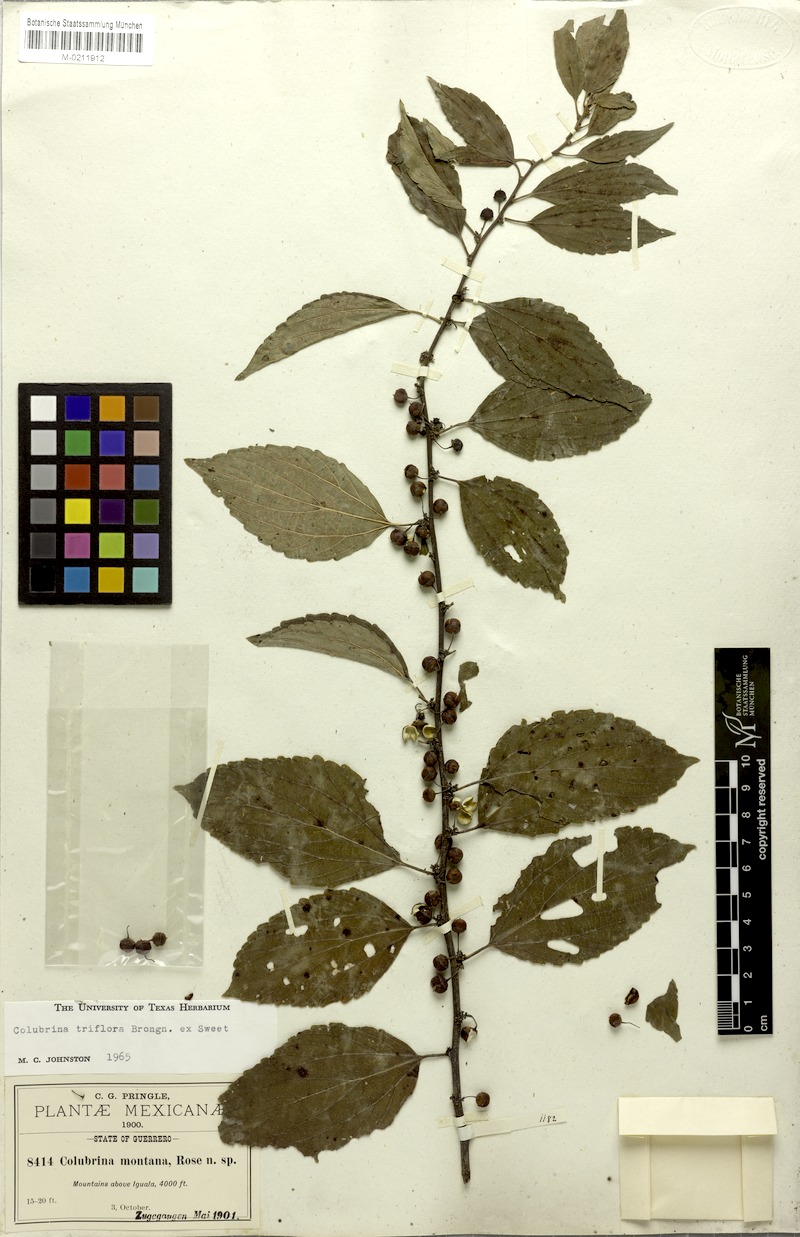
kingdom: Plantae
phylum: Tracheophyta
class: Magnoliopsida
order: Rosales
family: Rhamnaceae
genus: Colubrina
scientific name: Colubrina triflora
